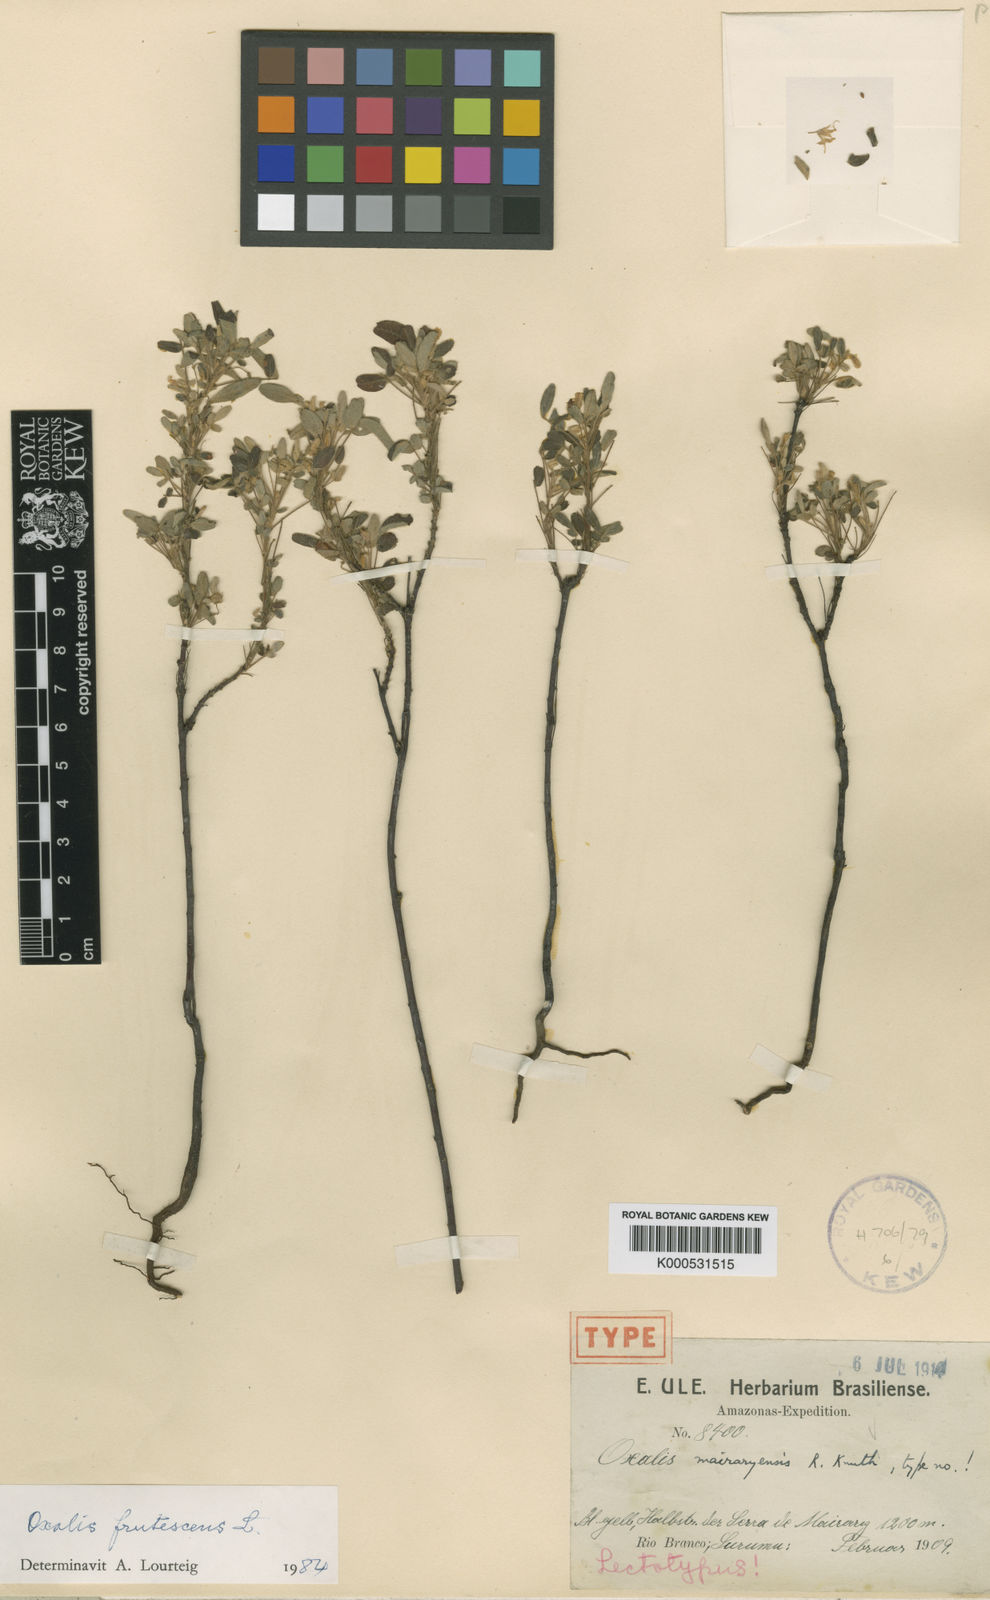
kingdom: Plantae
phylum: Tracheophyta
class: Magnoliopsida
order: Oxalidales
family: Oxalidaceae
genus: Oxalis
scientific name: Oxalis frutescens
